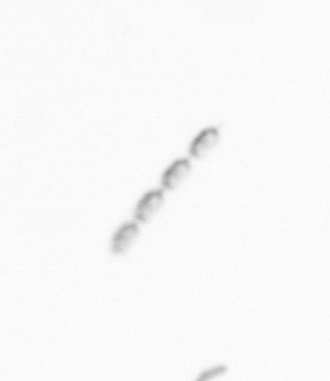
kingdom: Chromista
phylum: Ochrophyta
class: Bacillariophyceae
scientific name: Bacillariophyceae
